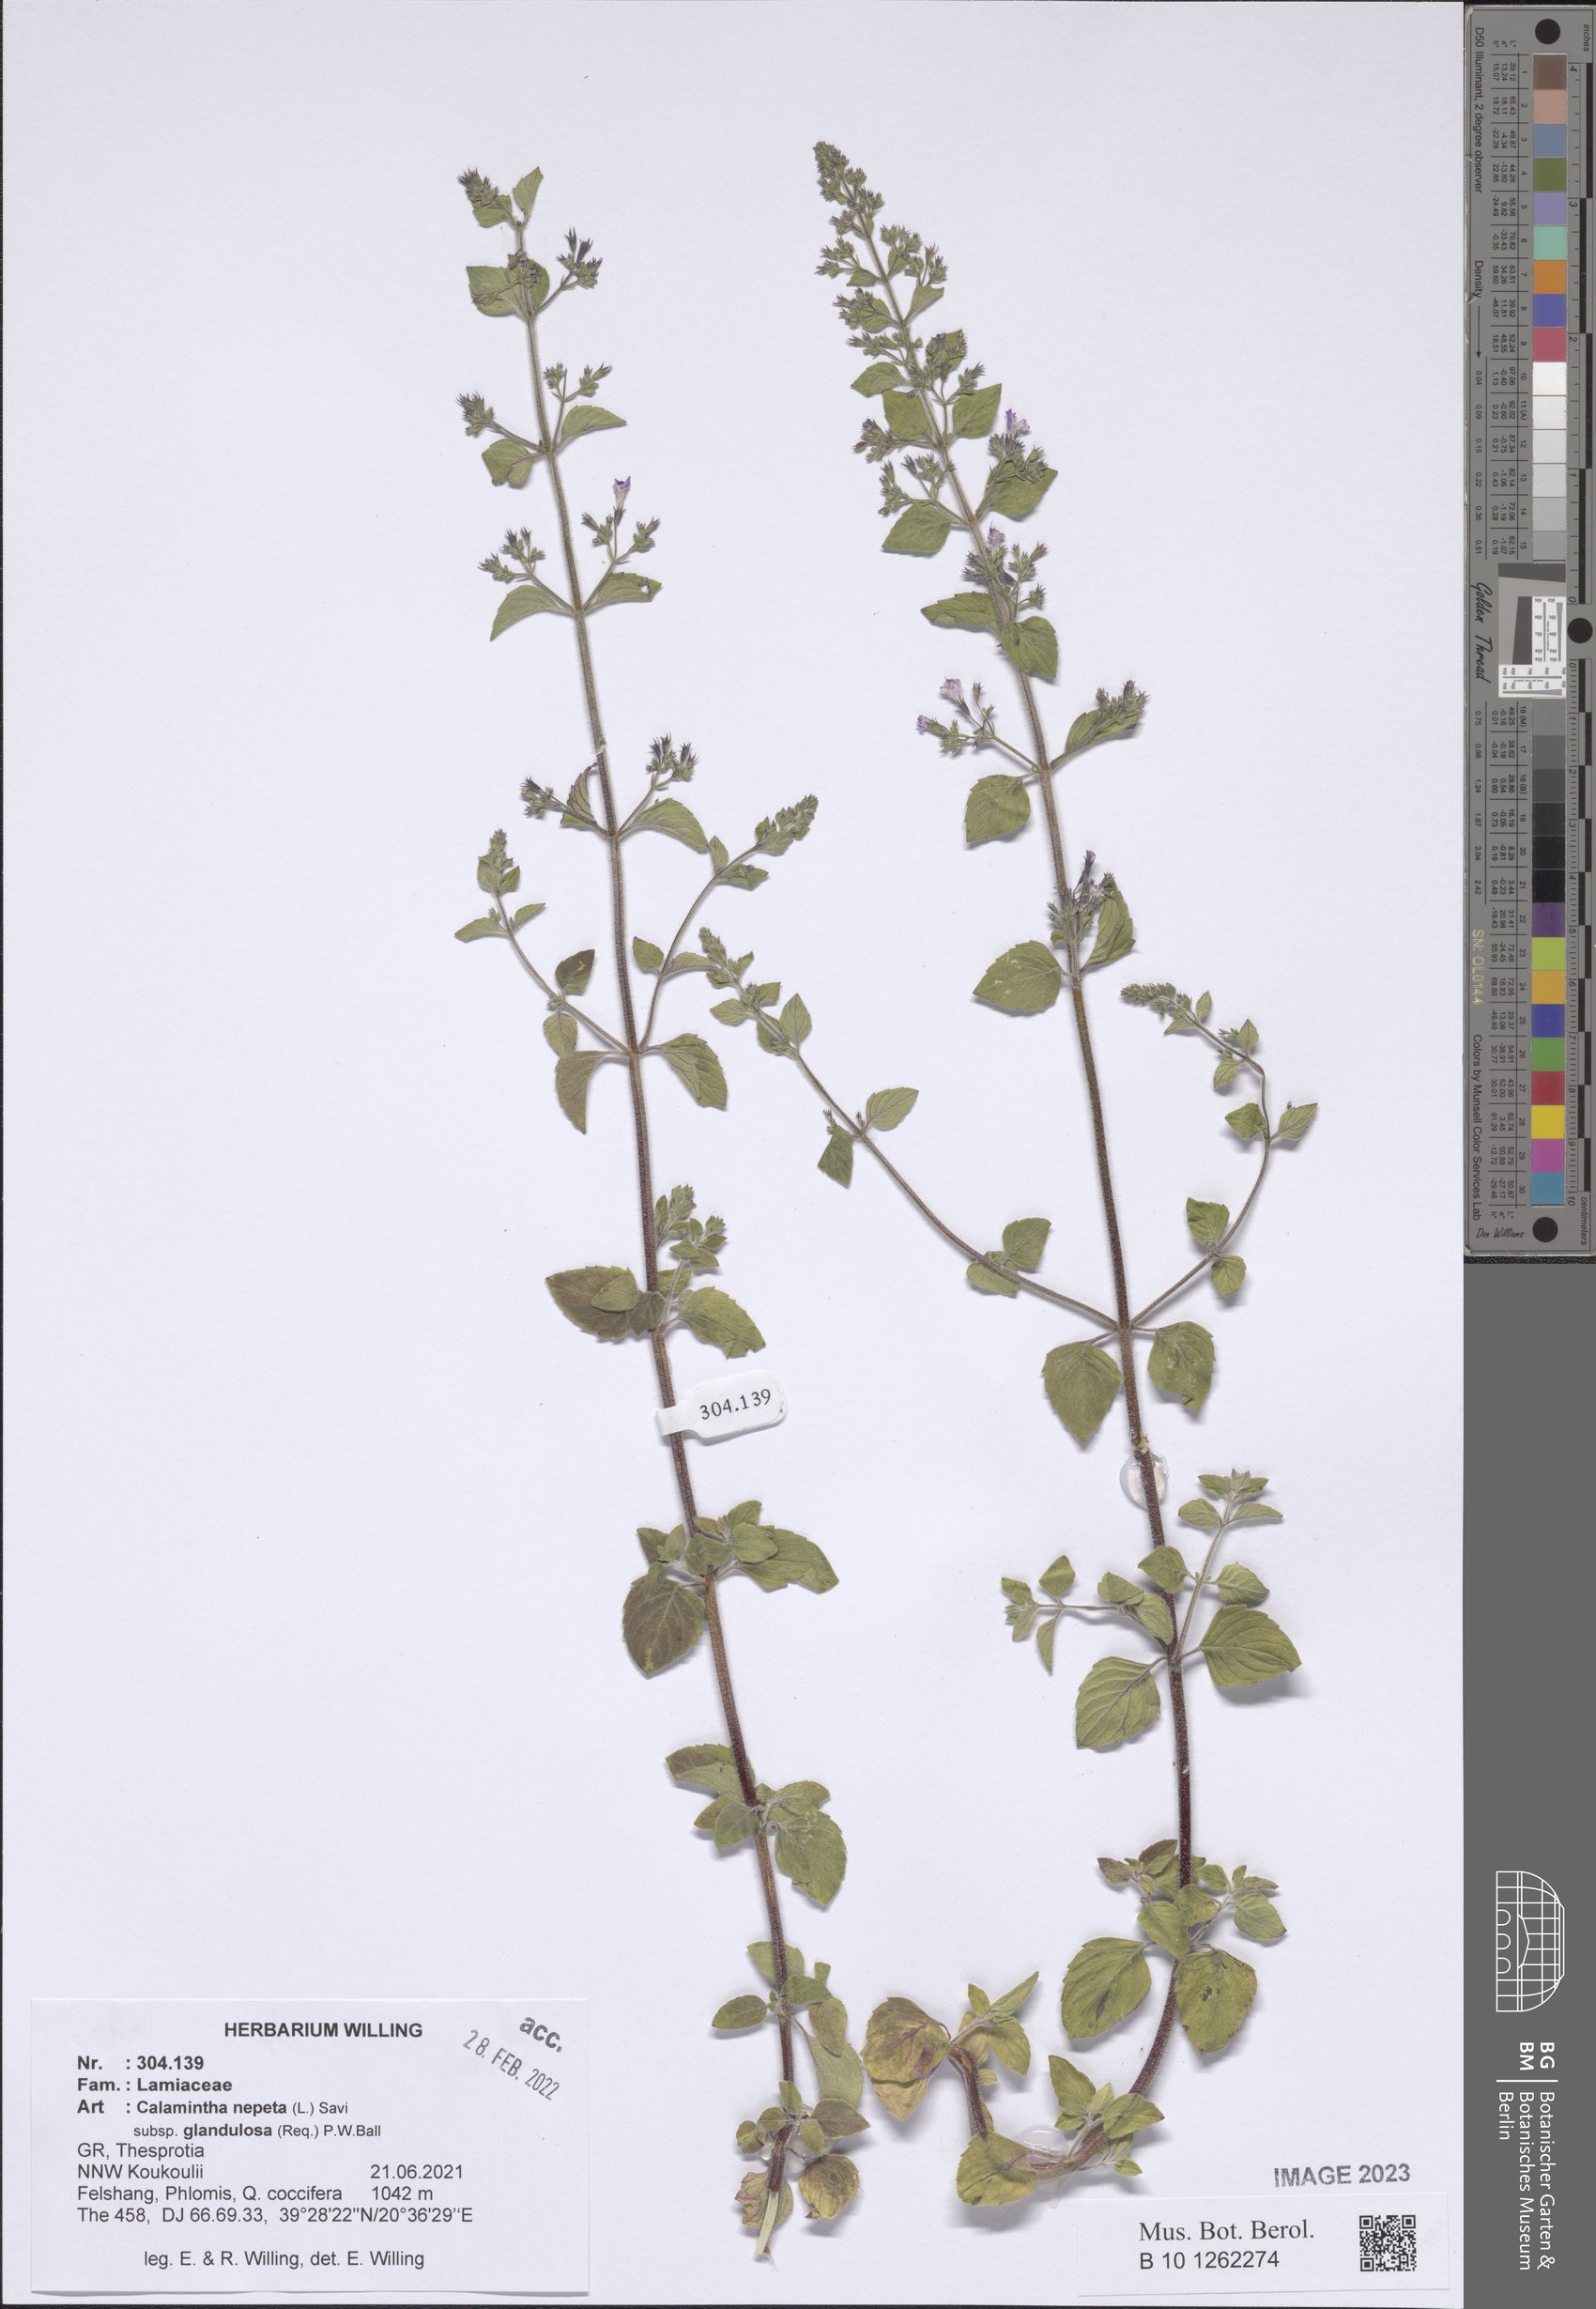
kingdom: Plantae
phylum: Tracheophyta
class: Magnoliopsida
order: Lamiales
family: Lamiaceae
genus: Clinopodium
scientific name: Clinopodium nepeta
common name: Lesser calamint
